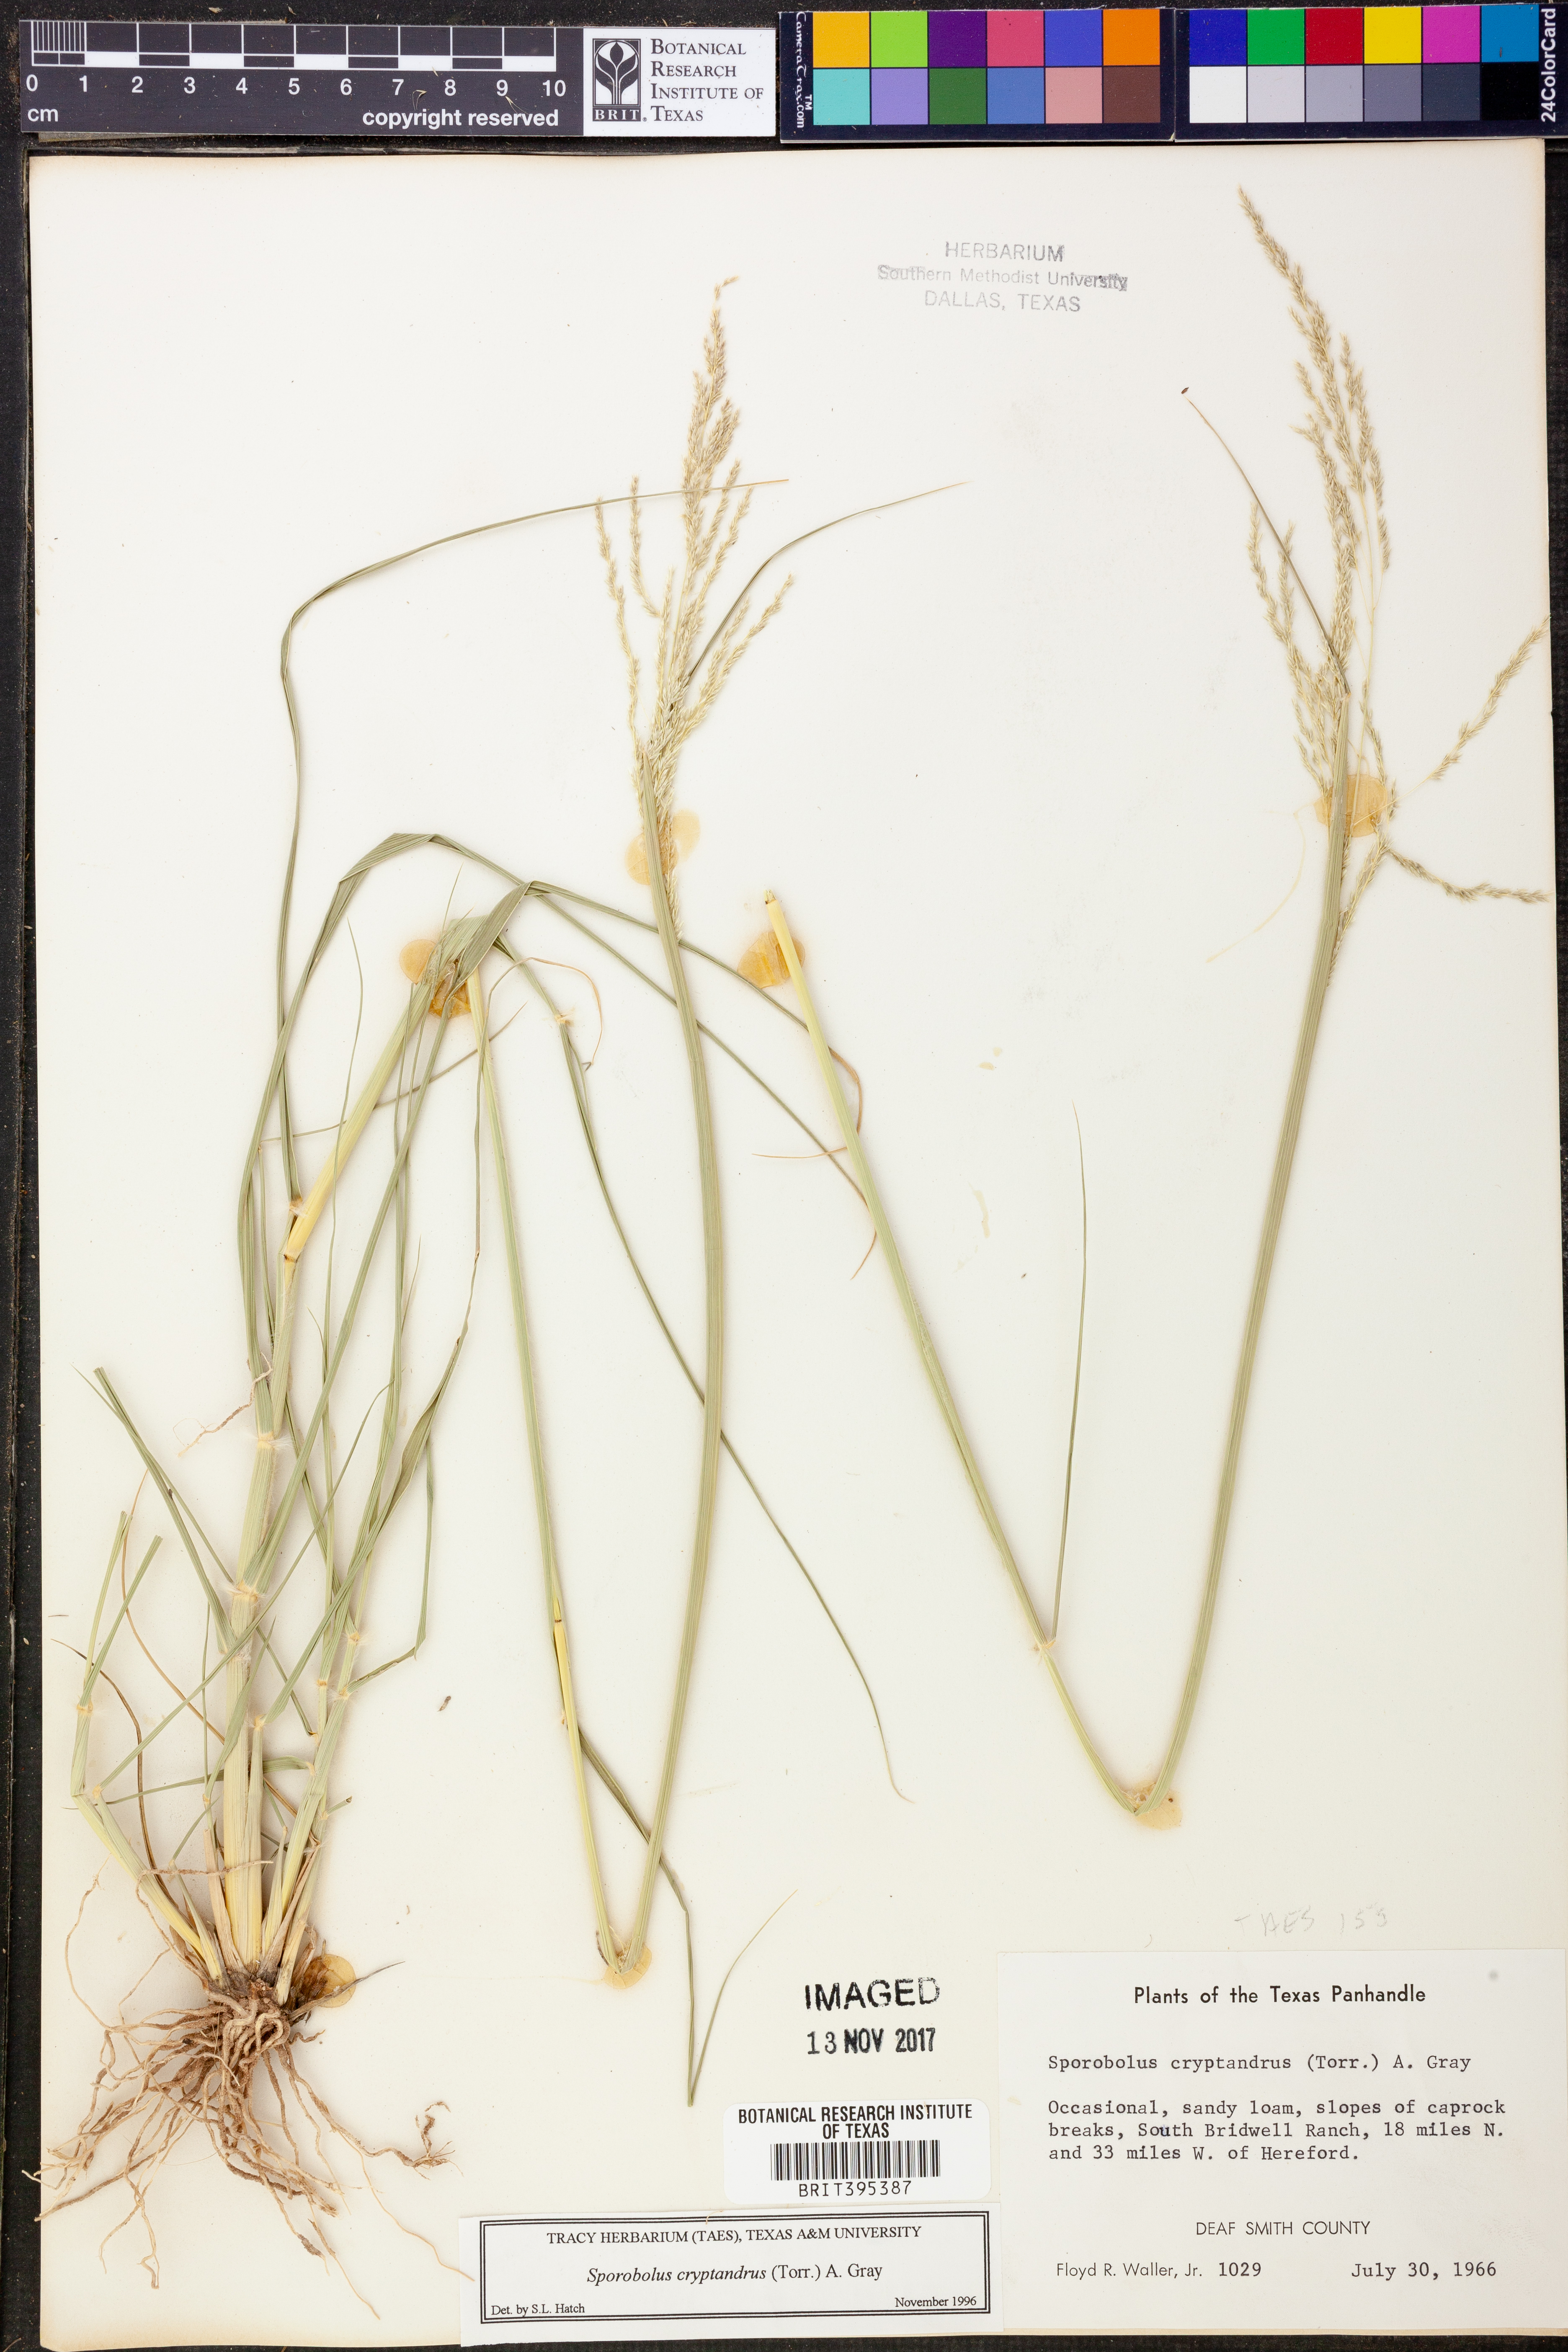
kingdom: Plantae
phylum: Tracheophyta
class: Liliopsida
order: Poales
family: Poaceae
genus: Sporobolus
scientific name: Sporobolus cryptandrus
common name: Sand dropseed
